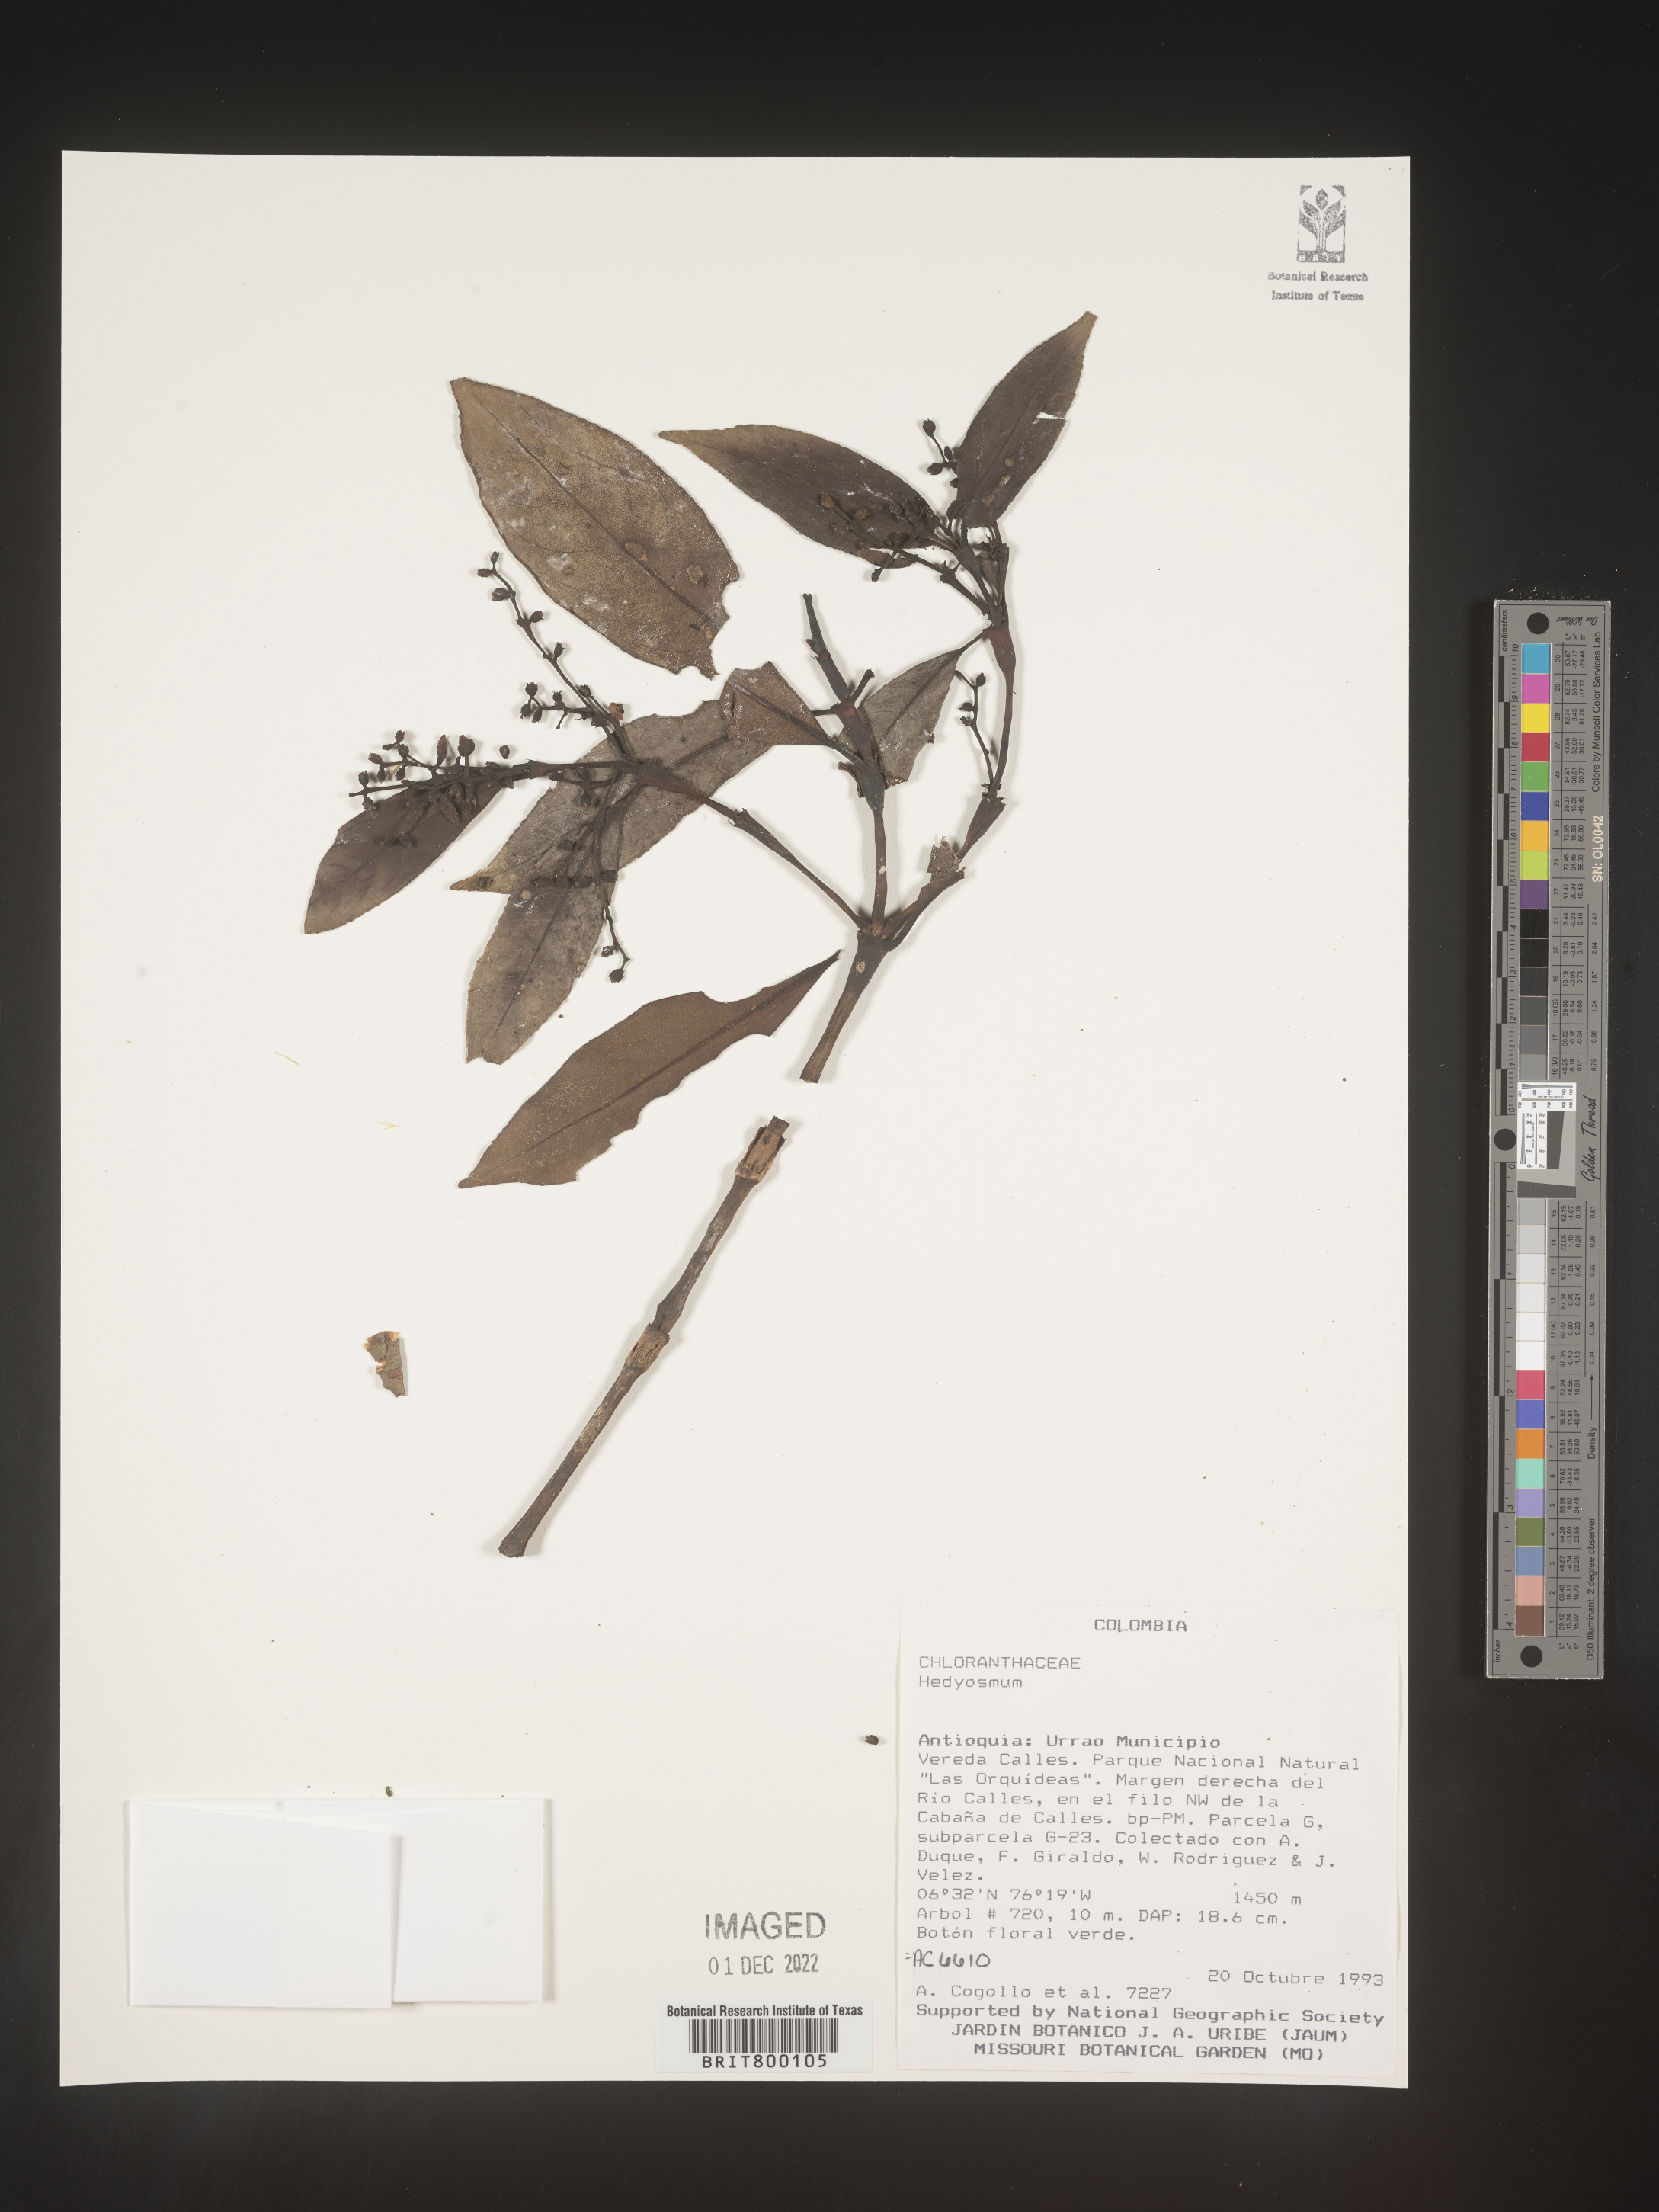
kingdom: Plantae
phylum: Tracheophyta
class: Magnoliopsida
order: Chloranthales
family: Chloranthaceae
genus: Hedyosmum
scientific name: Hedyosmum
